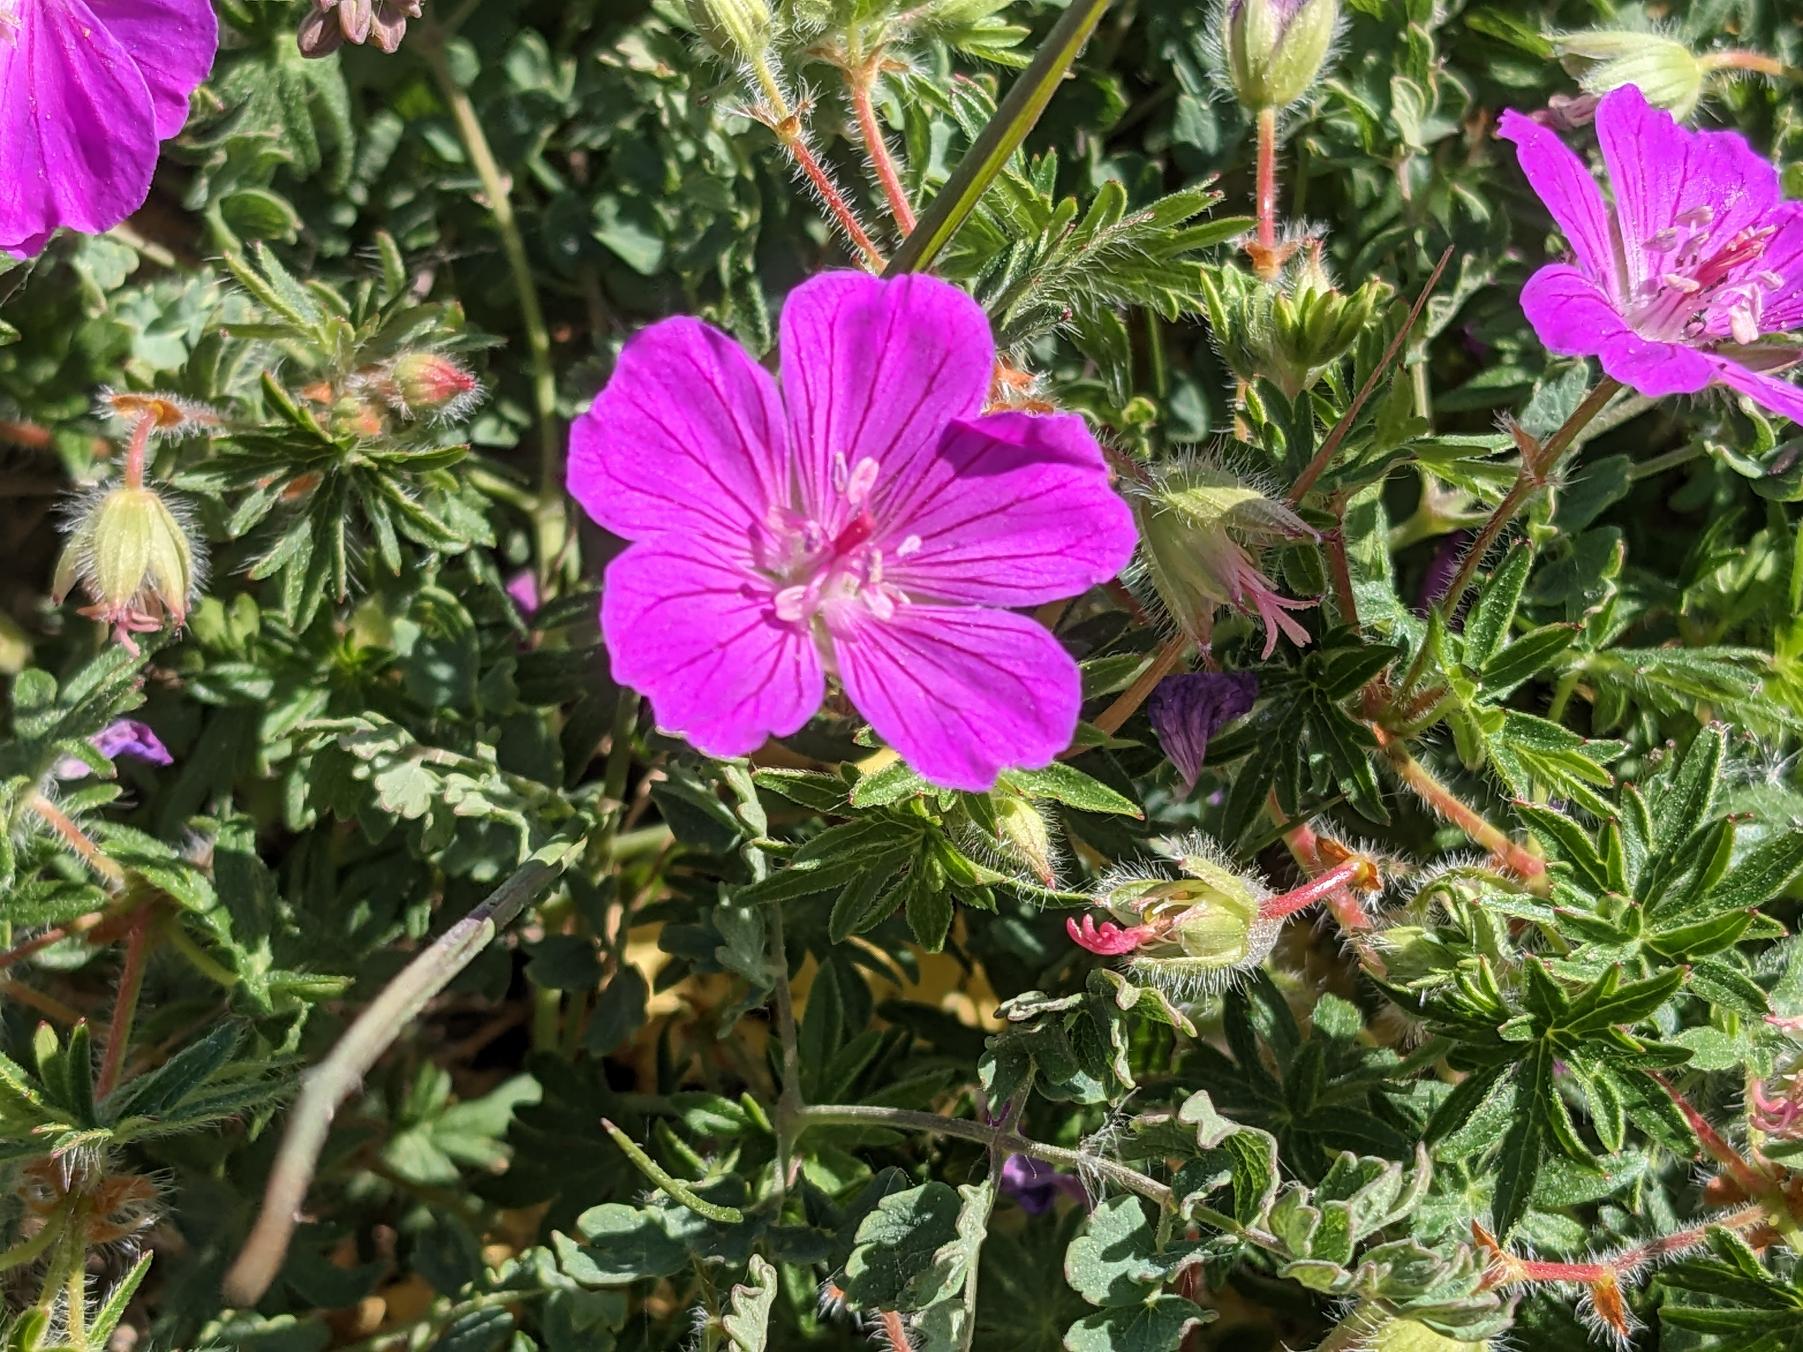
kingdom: Plantae
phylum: Tracheophyta
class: Magnoliopsida
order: Geraniales
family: Geraniaceae
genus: Geranium
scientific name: Geranium sanguineum
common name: Blodrød storkenæb
